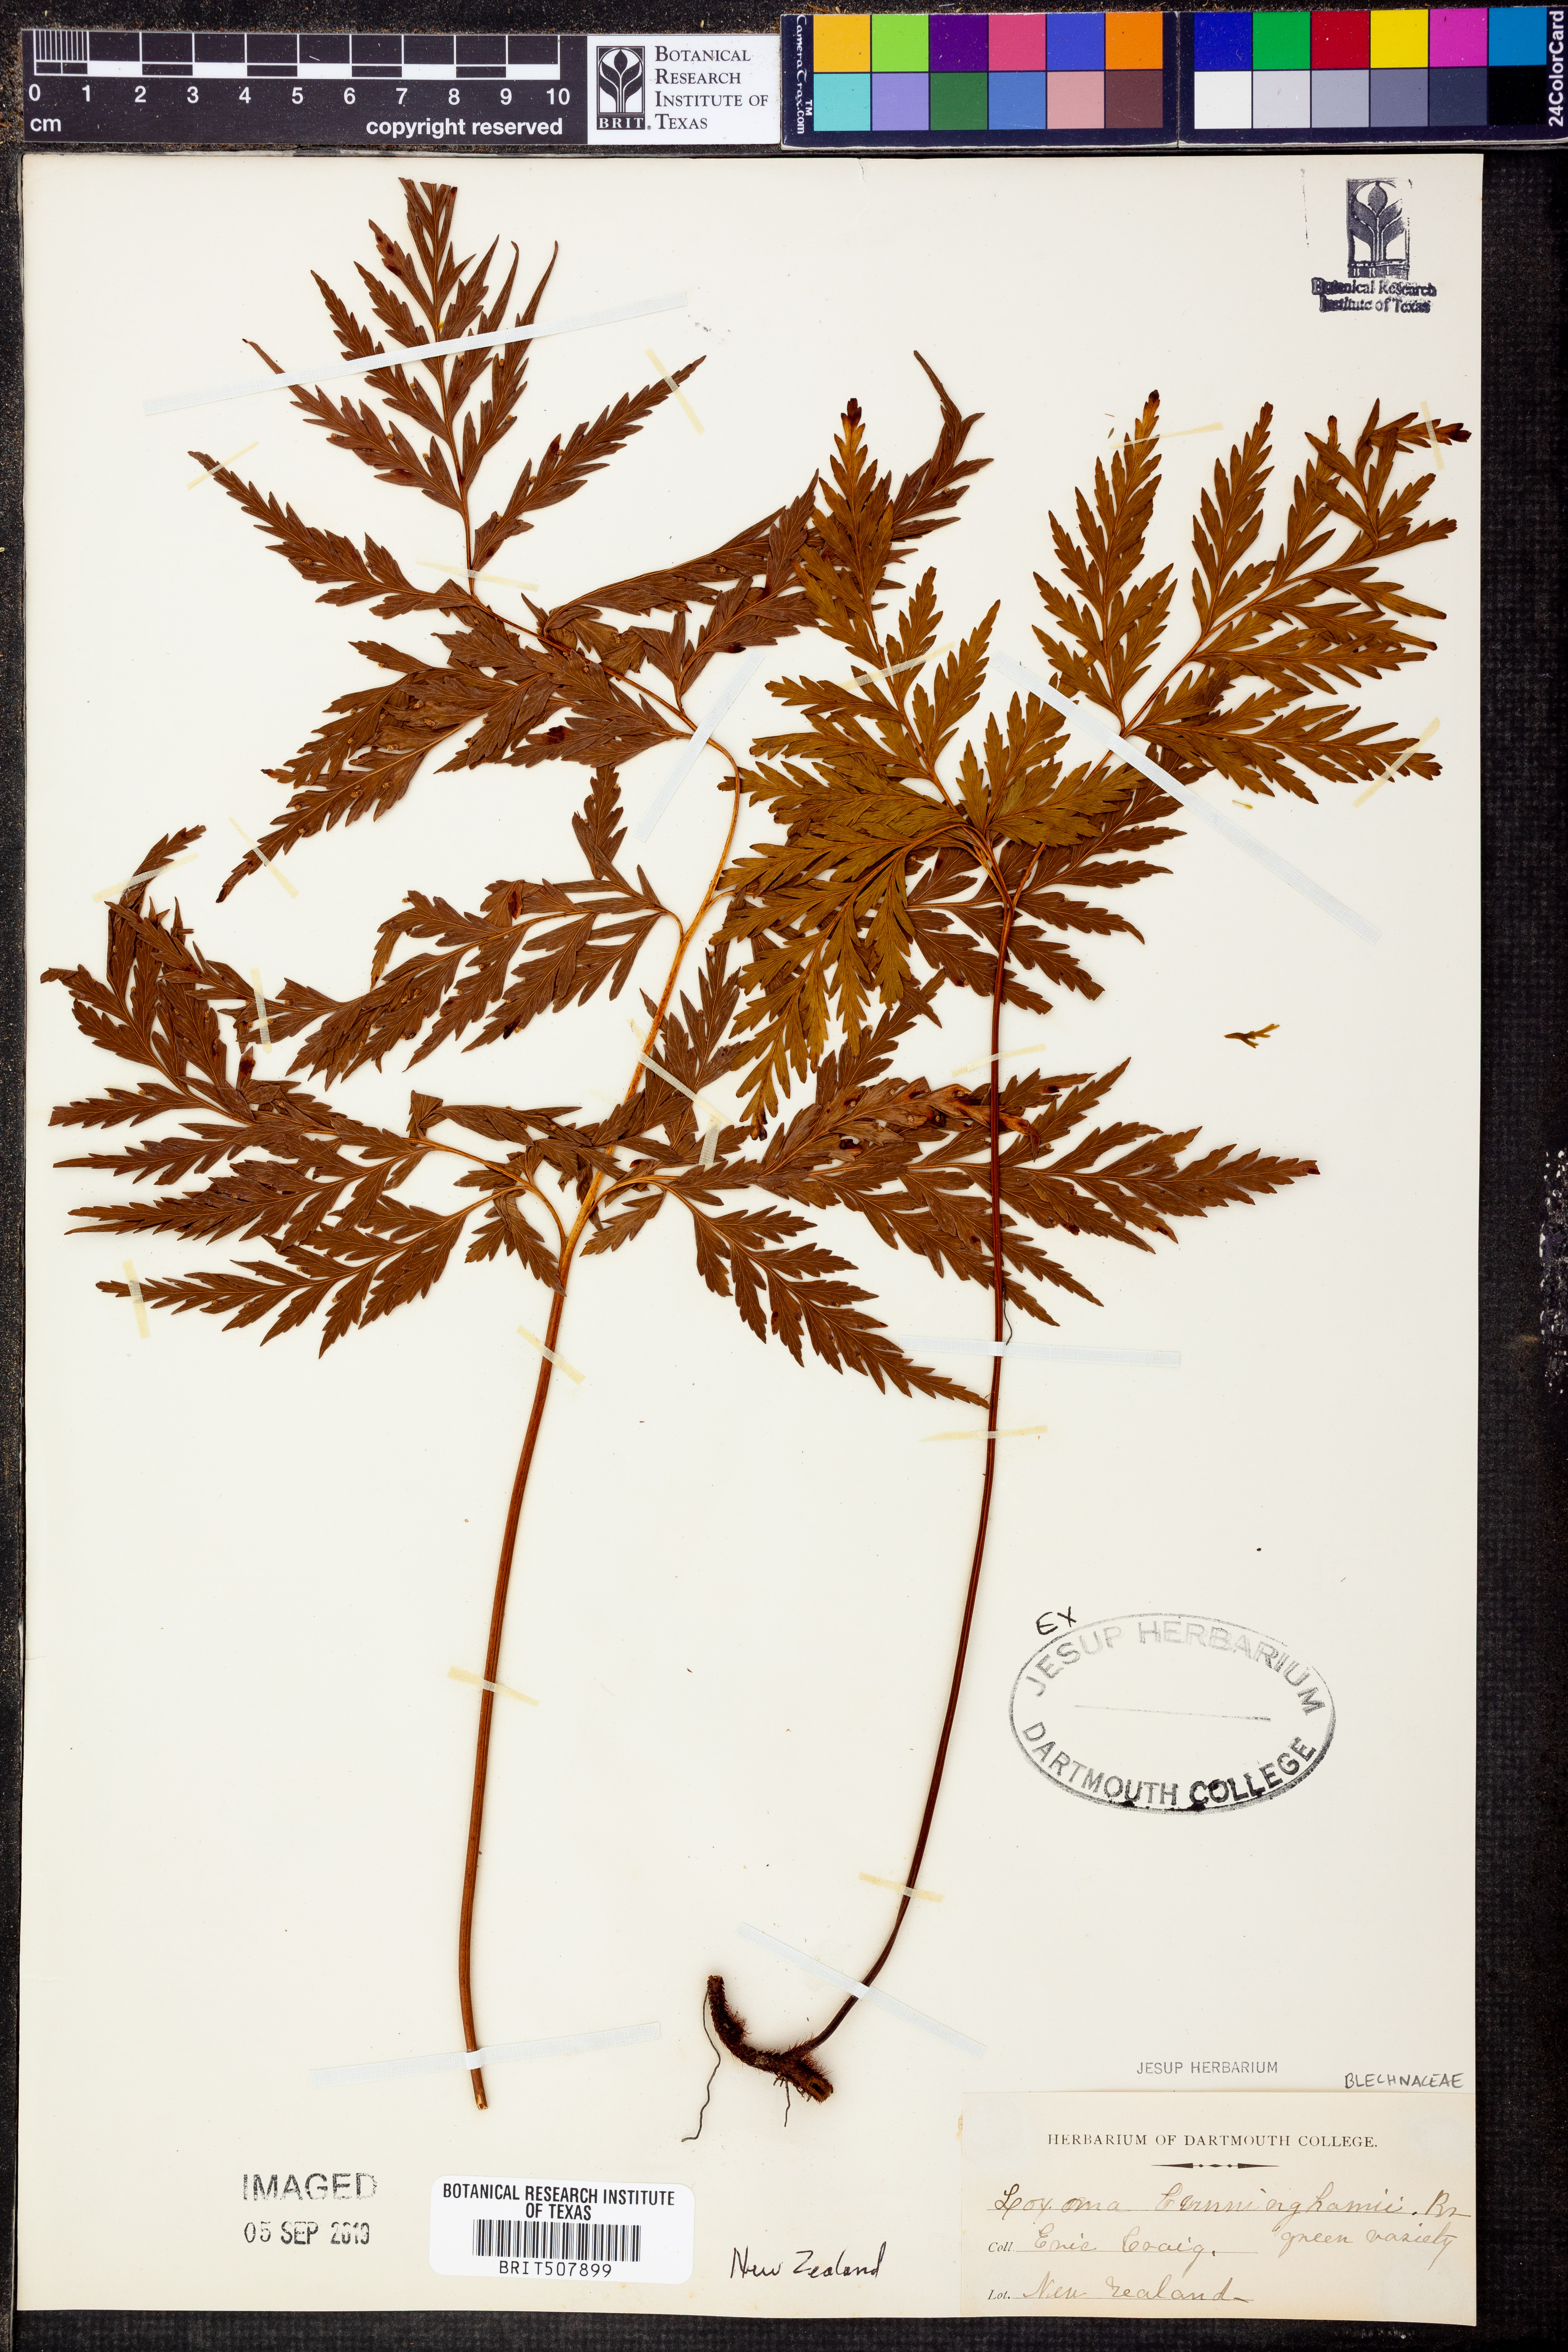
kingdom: Plantae
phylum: Tracheophyta
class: Polypodiopsida
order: Cyatheales
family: Loxsomataceae
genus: Loxsoma
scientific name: Loxsoma cunninghamii
